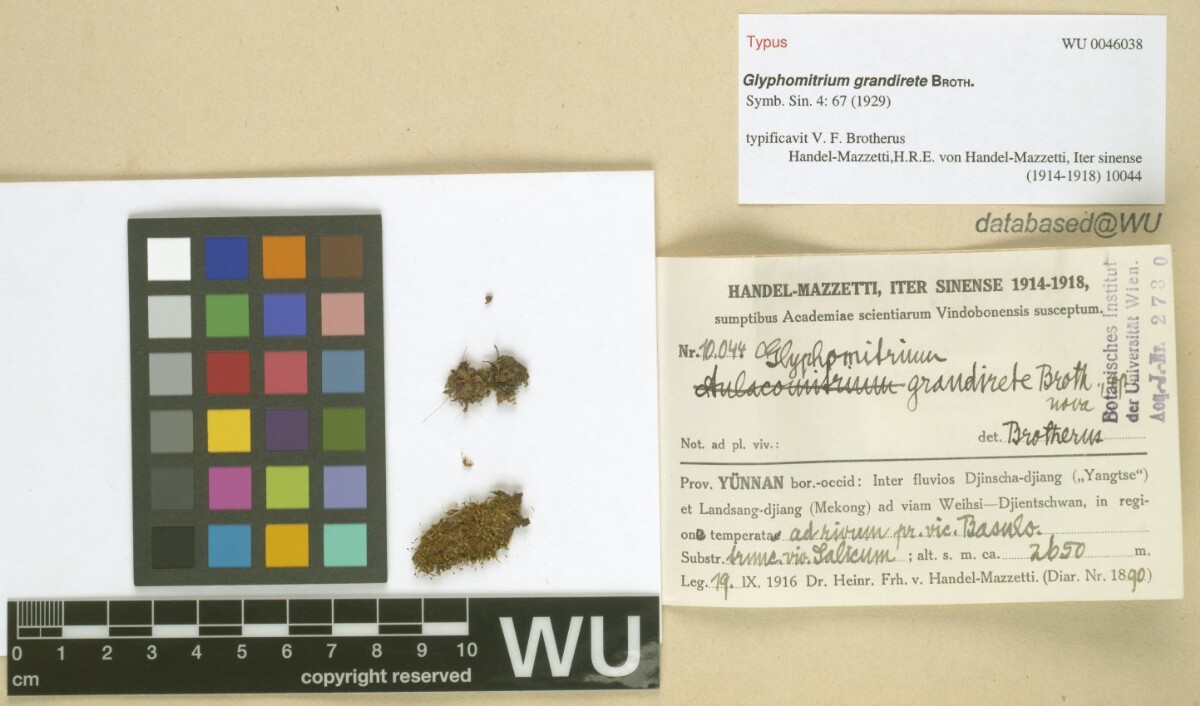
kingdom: Plantae
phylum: Bryophyta
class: Bryopsida
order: Dicranales
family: Rhabdoweisiaceae
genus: Glyphomitrium
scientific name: Glyphomitrium minutissimum
